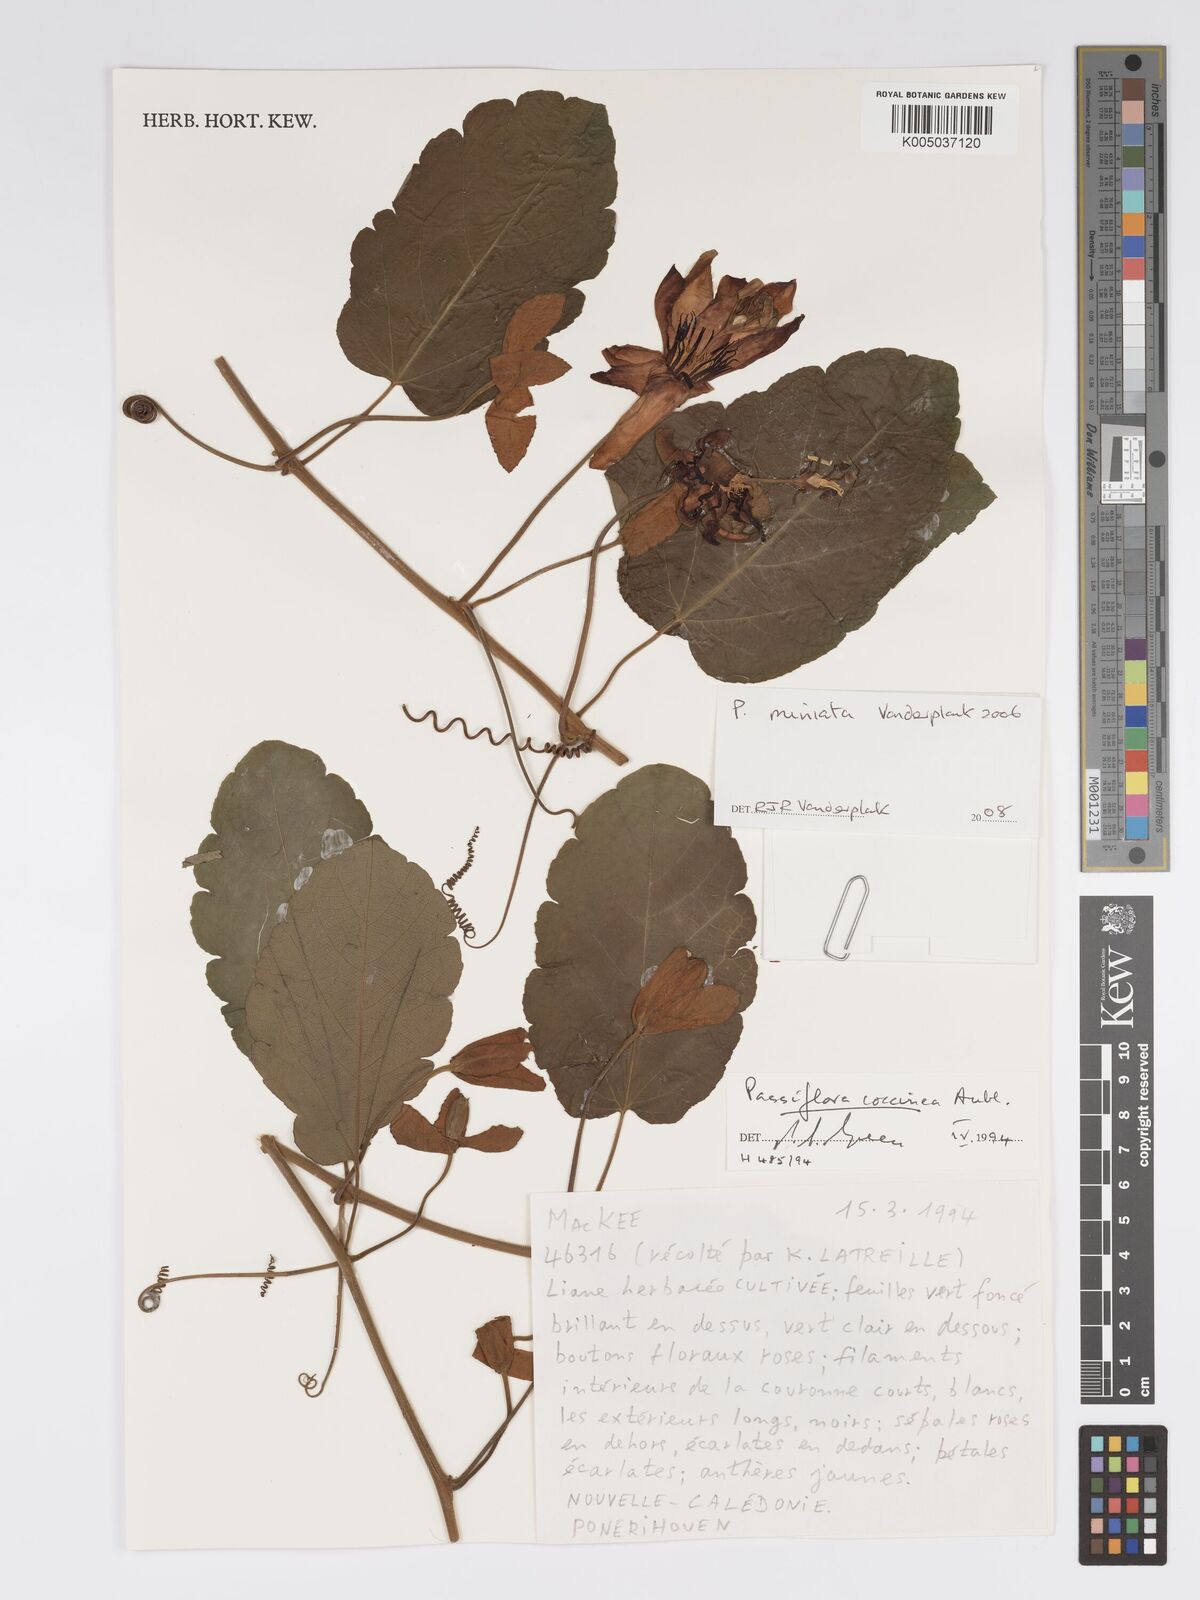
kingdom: Plantae
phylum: Tracheophyta
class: Magnoliopsida
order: Malpighiales
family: Passifloraceae
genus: Passiflora
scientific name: Passiflora
